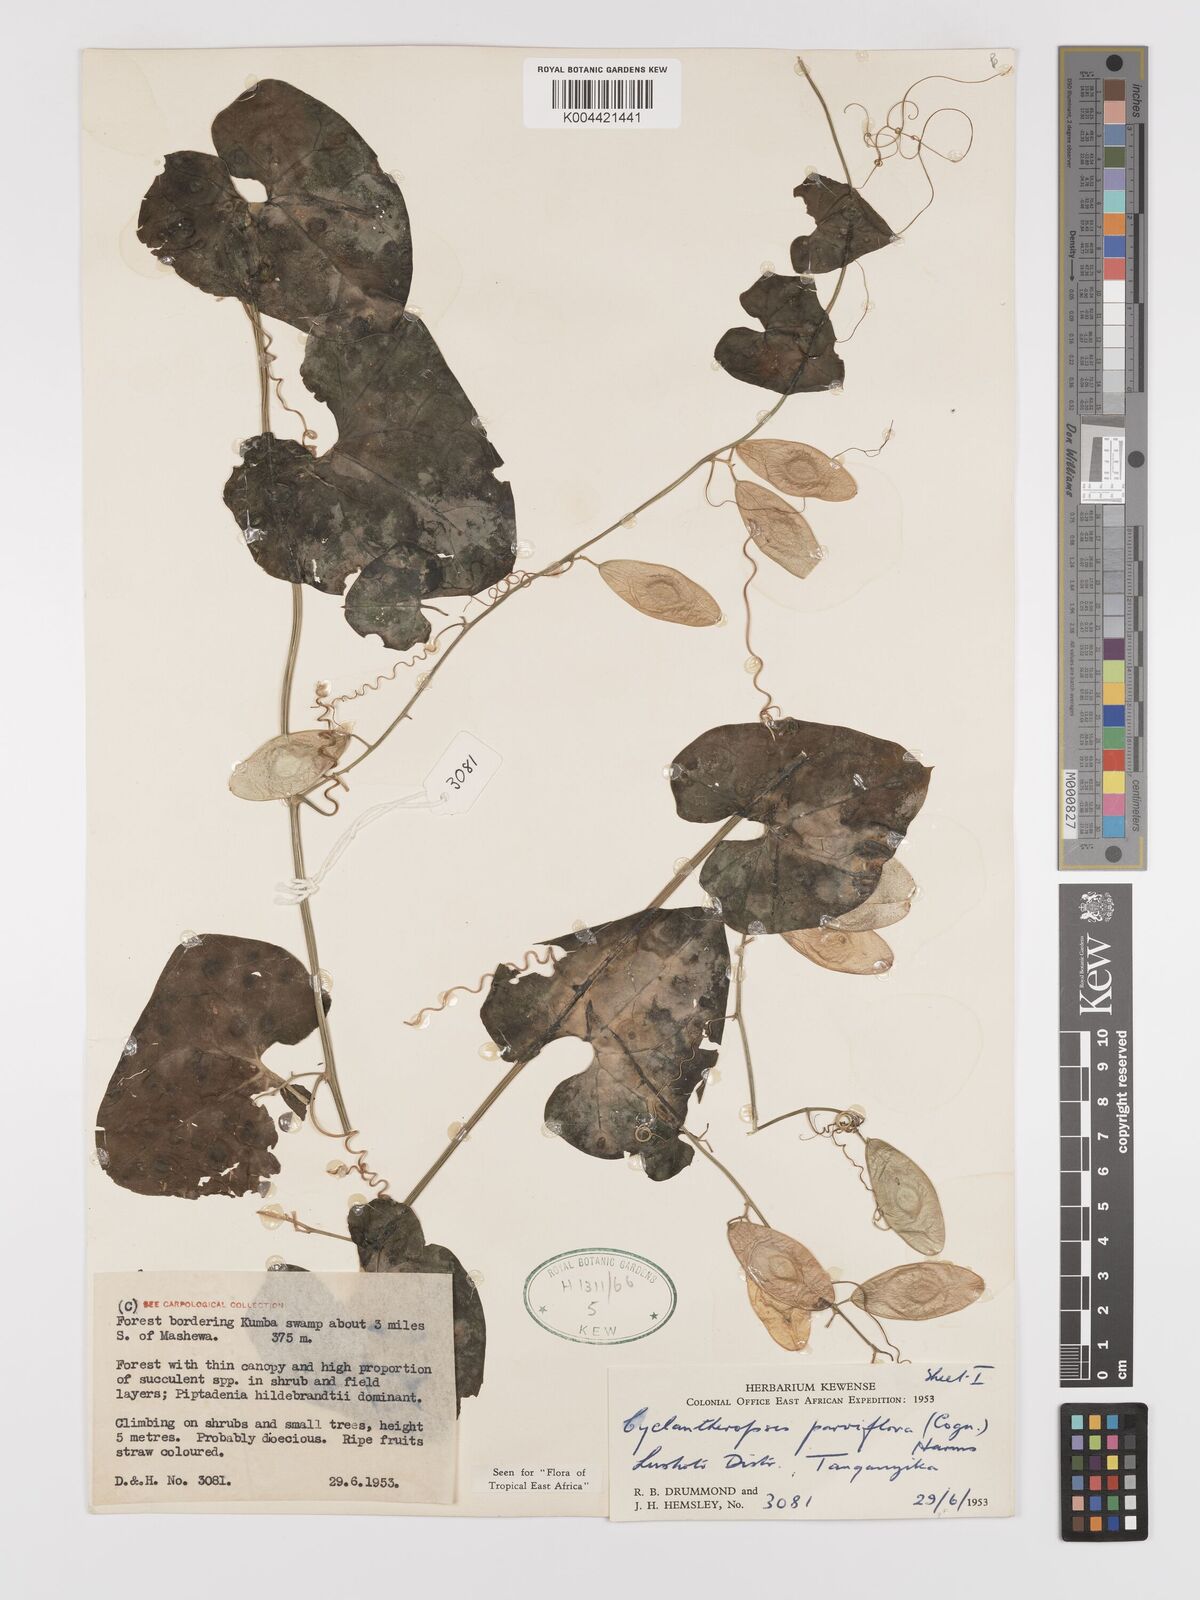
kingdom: Plantae
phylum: Tracheophyta
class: Magnoliopsida
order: Cucurbitales
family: Cucurbitaceae
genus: Cyclantheropsis
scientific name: Cyclantheropsis parviflora
